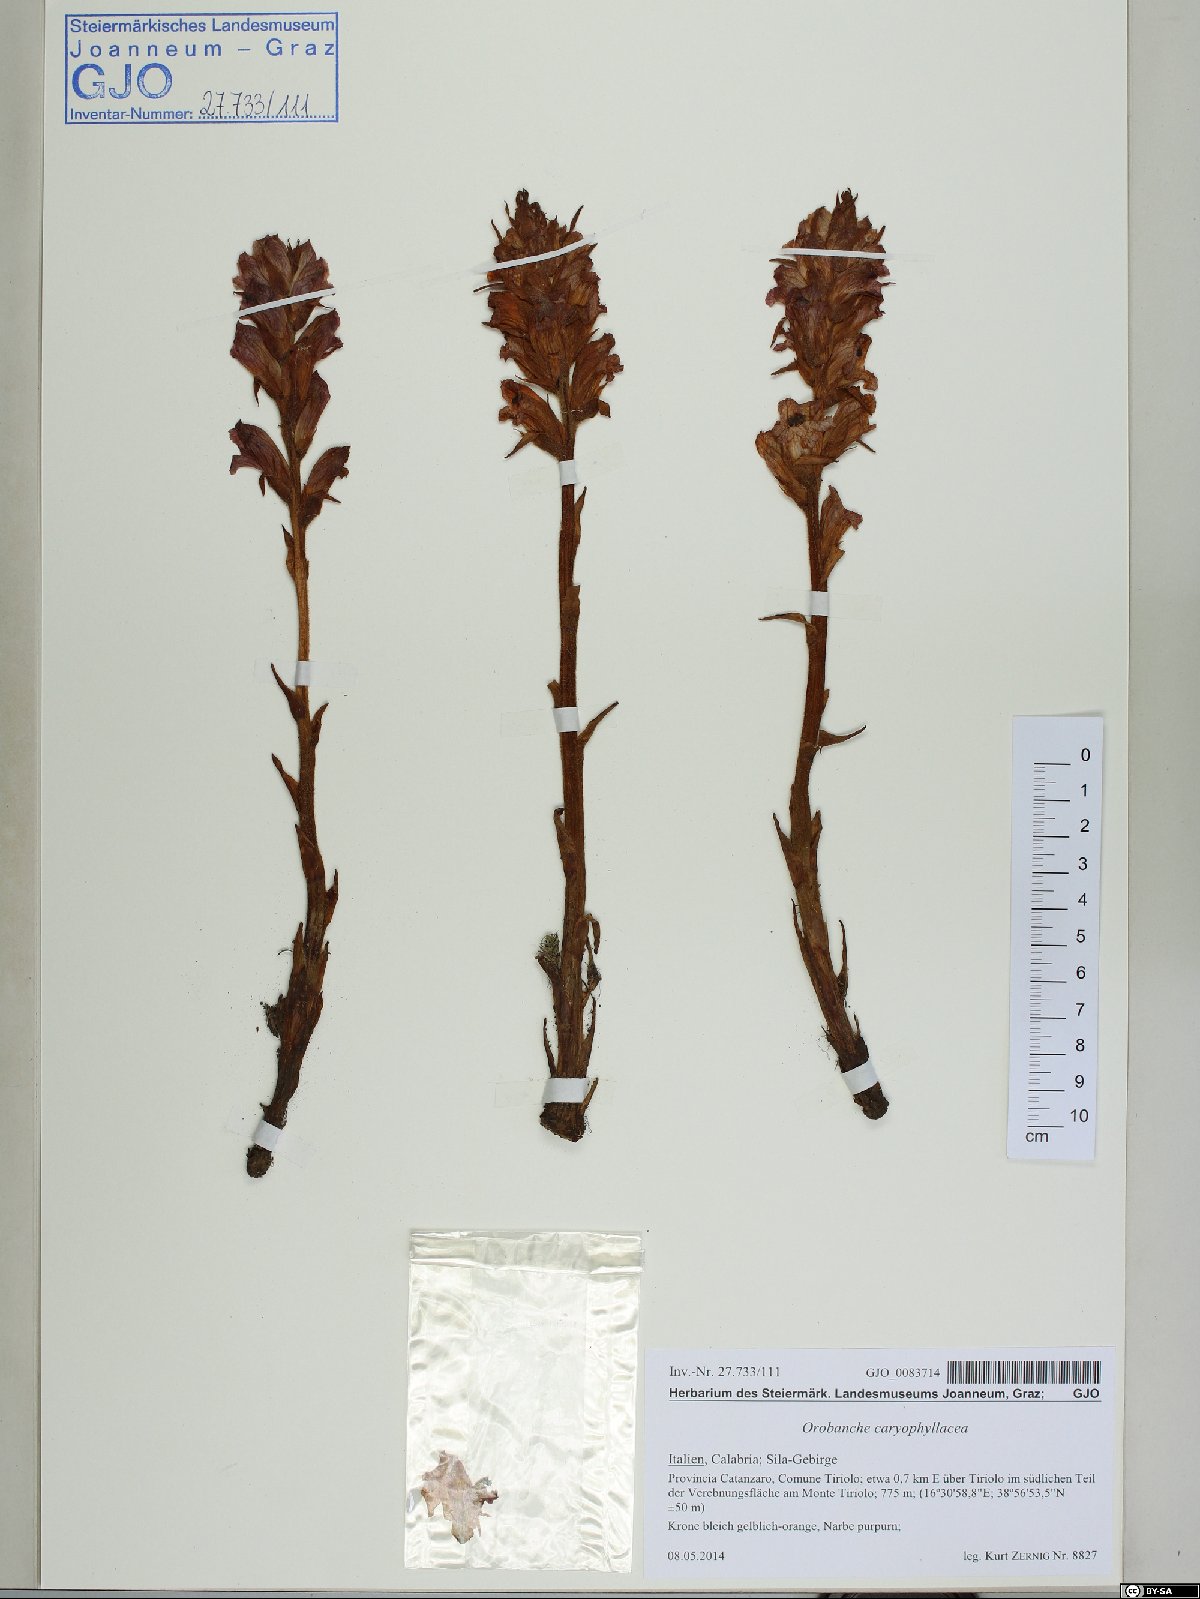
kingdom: Plantae
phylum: Tracheophyta
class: Magnoliopsida
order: Lamiales
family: Orobanchaceae
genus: Orobanche
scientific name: Orobanche caryophyllacea
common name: Bedstraw broomrape
